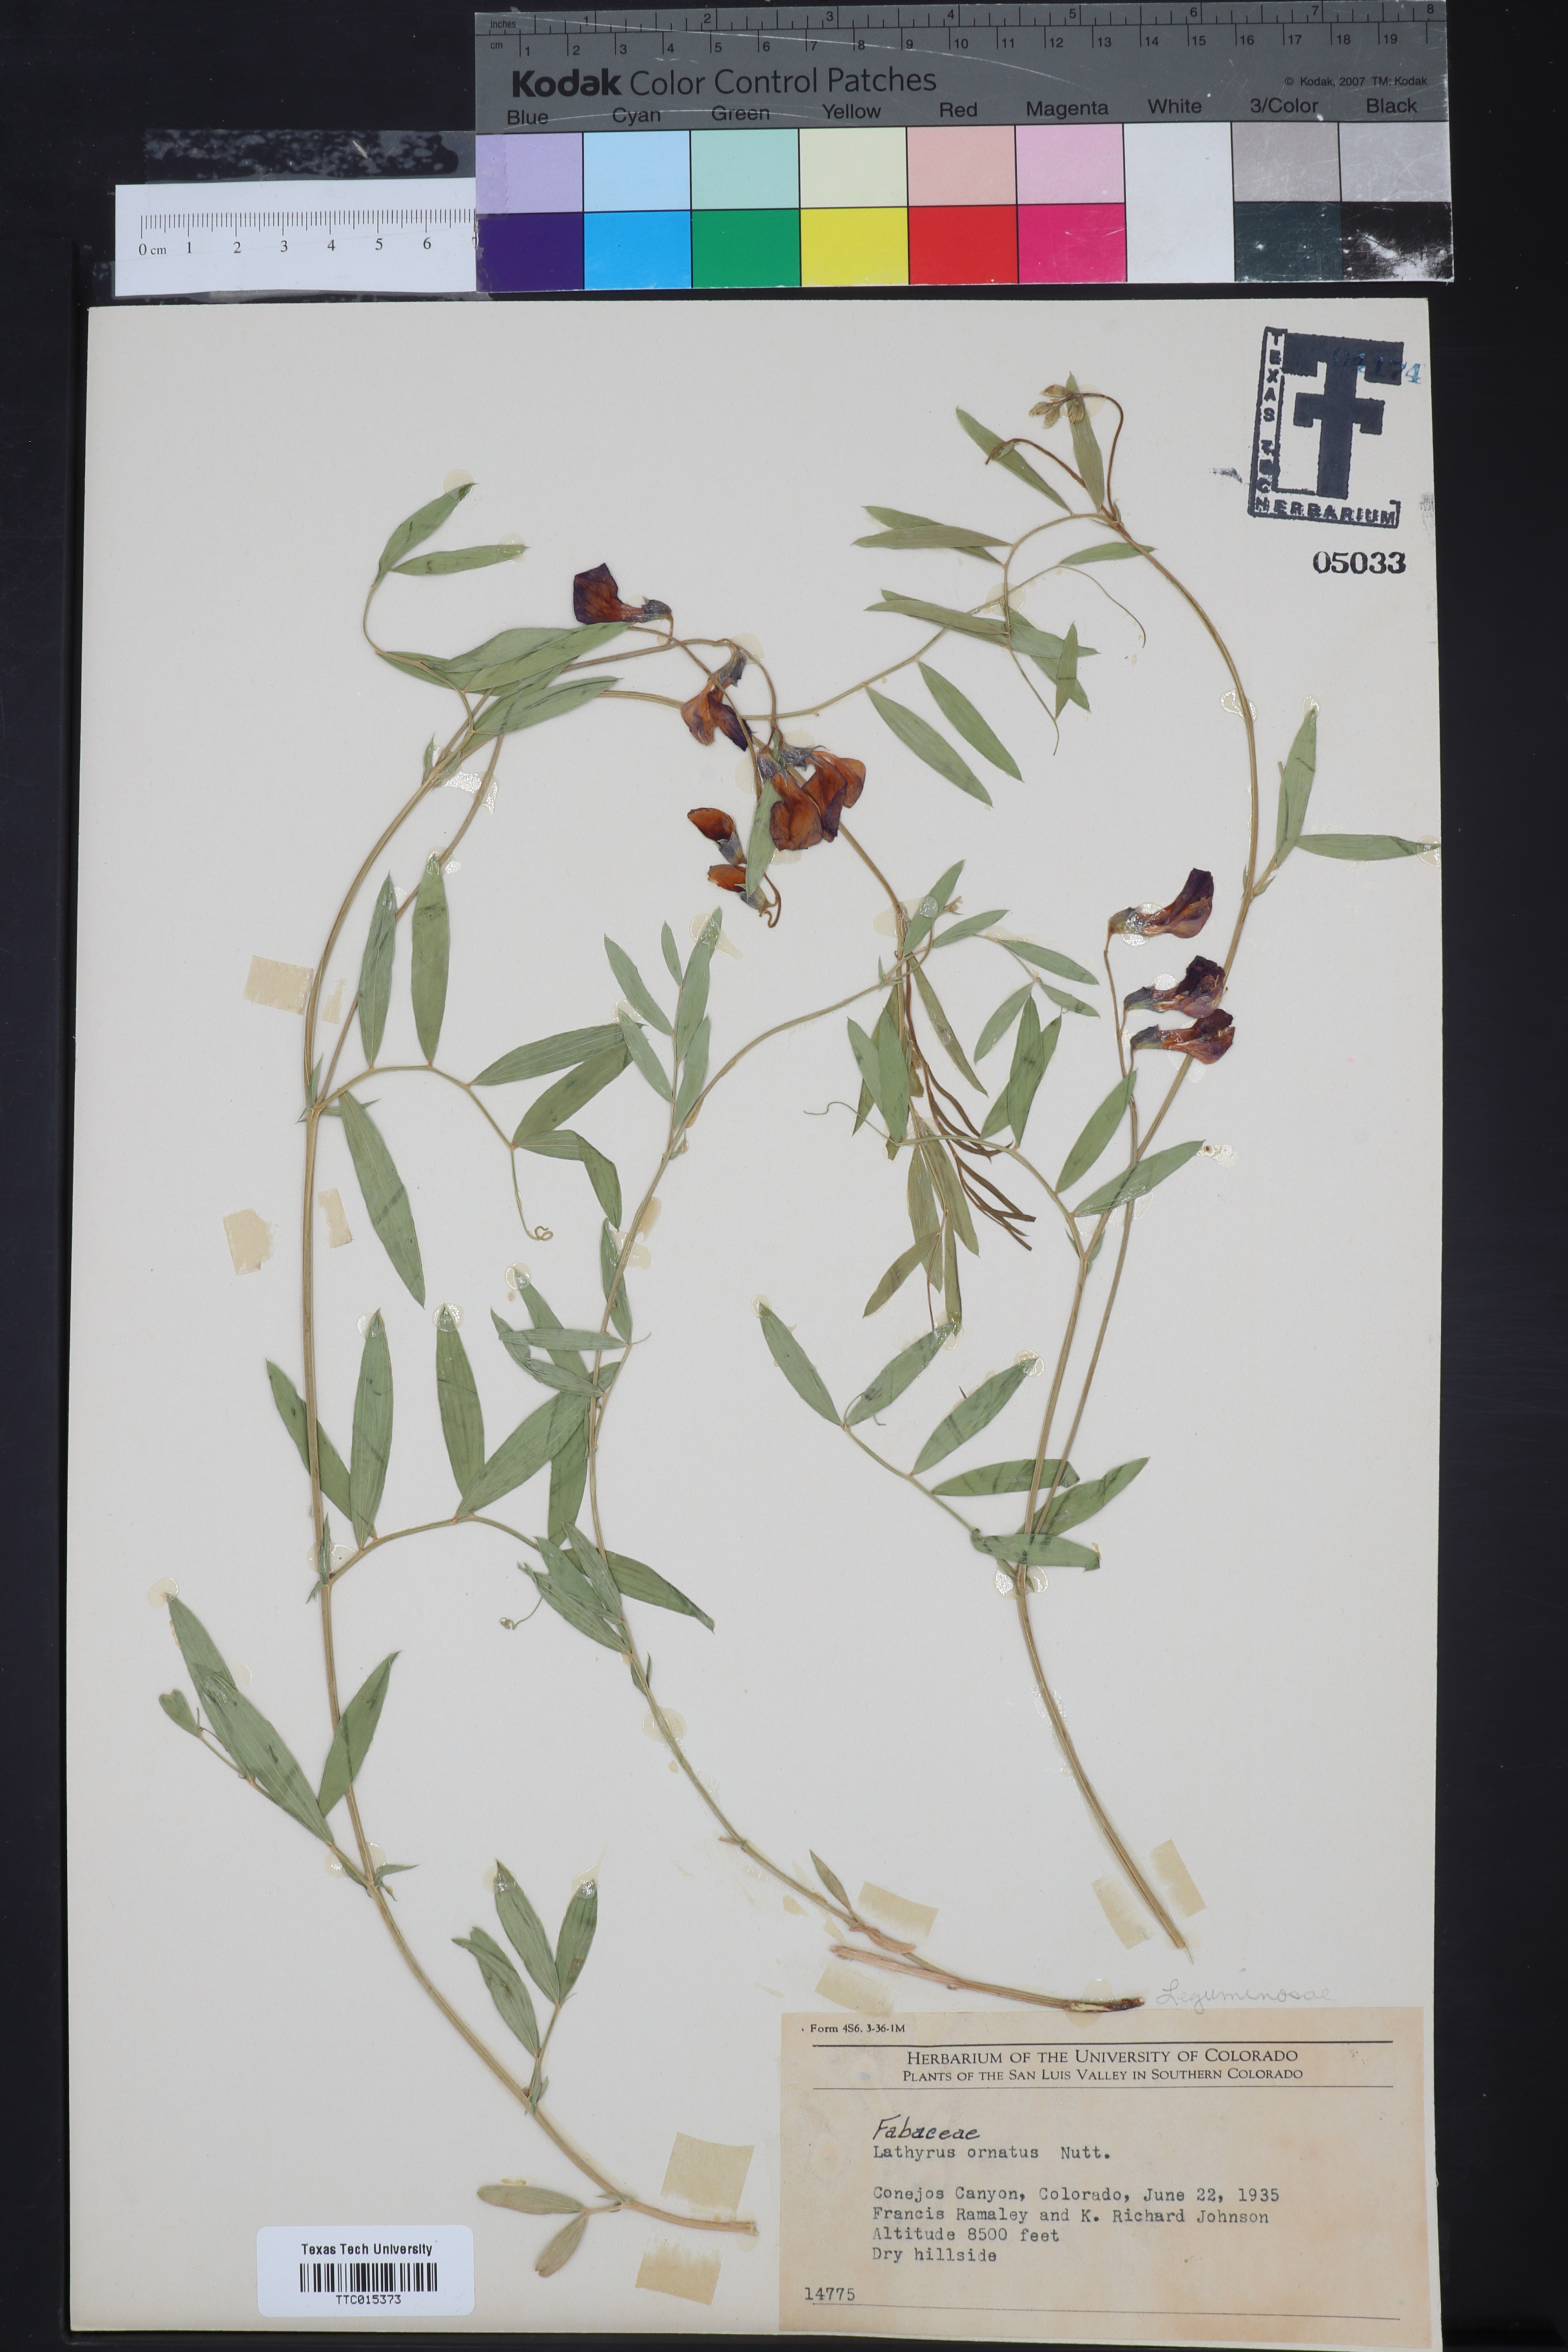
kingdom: Plantae
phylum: Tracheophyta
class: Magnoliopsida
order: Fabales
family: Fabaceae
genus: Lathyrus
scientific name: Lathyrus decaphyllus
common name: Prairie vetchling
